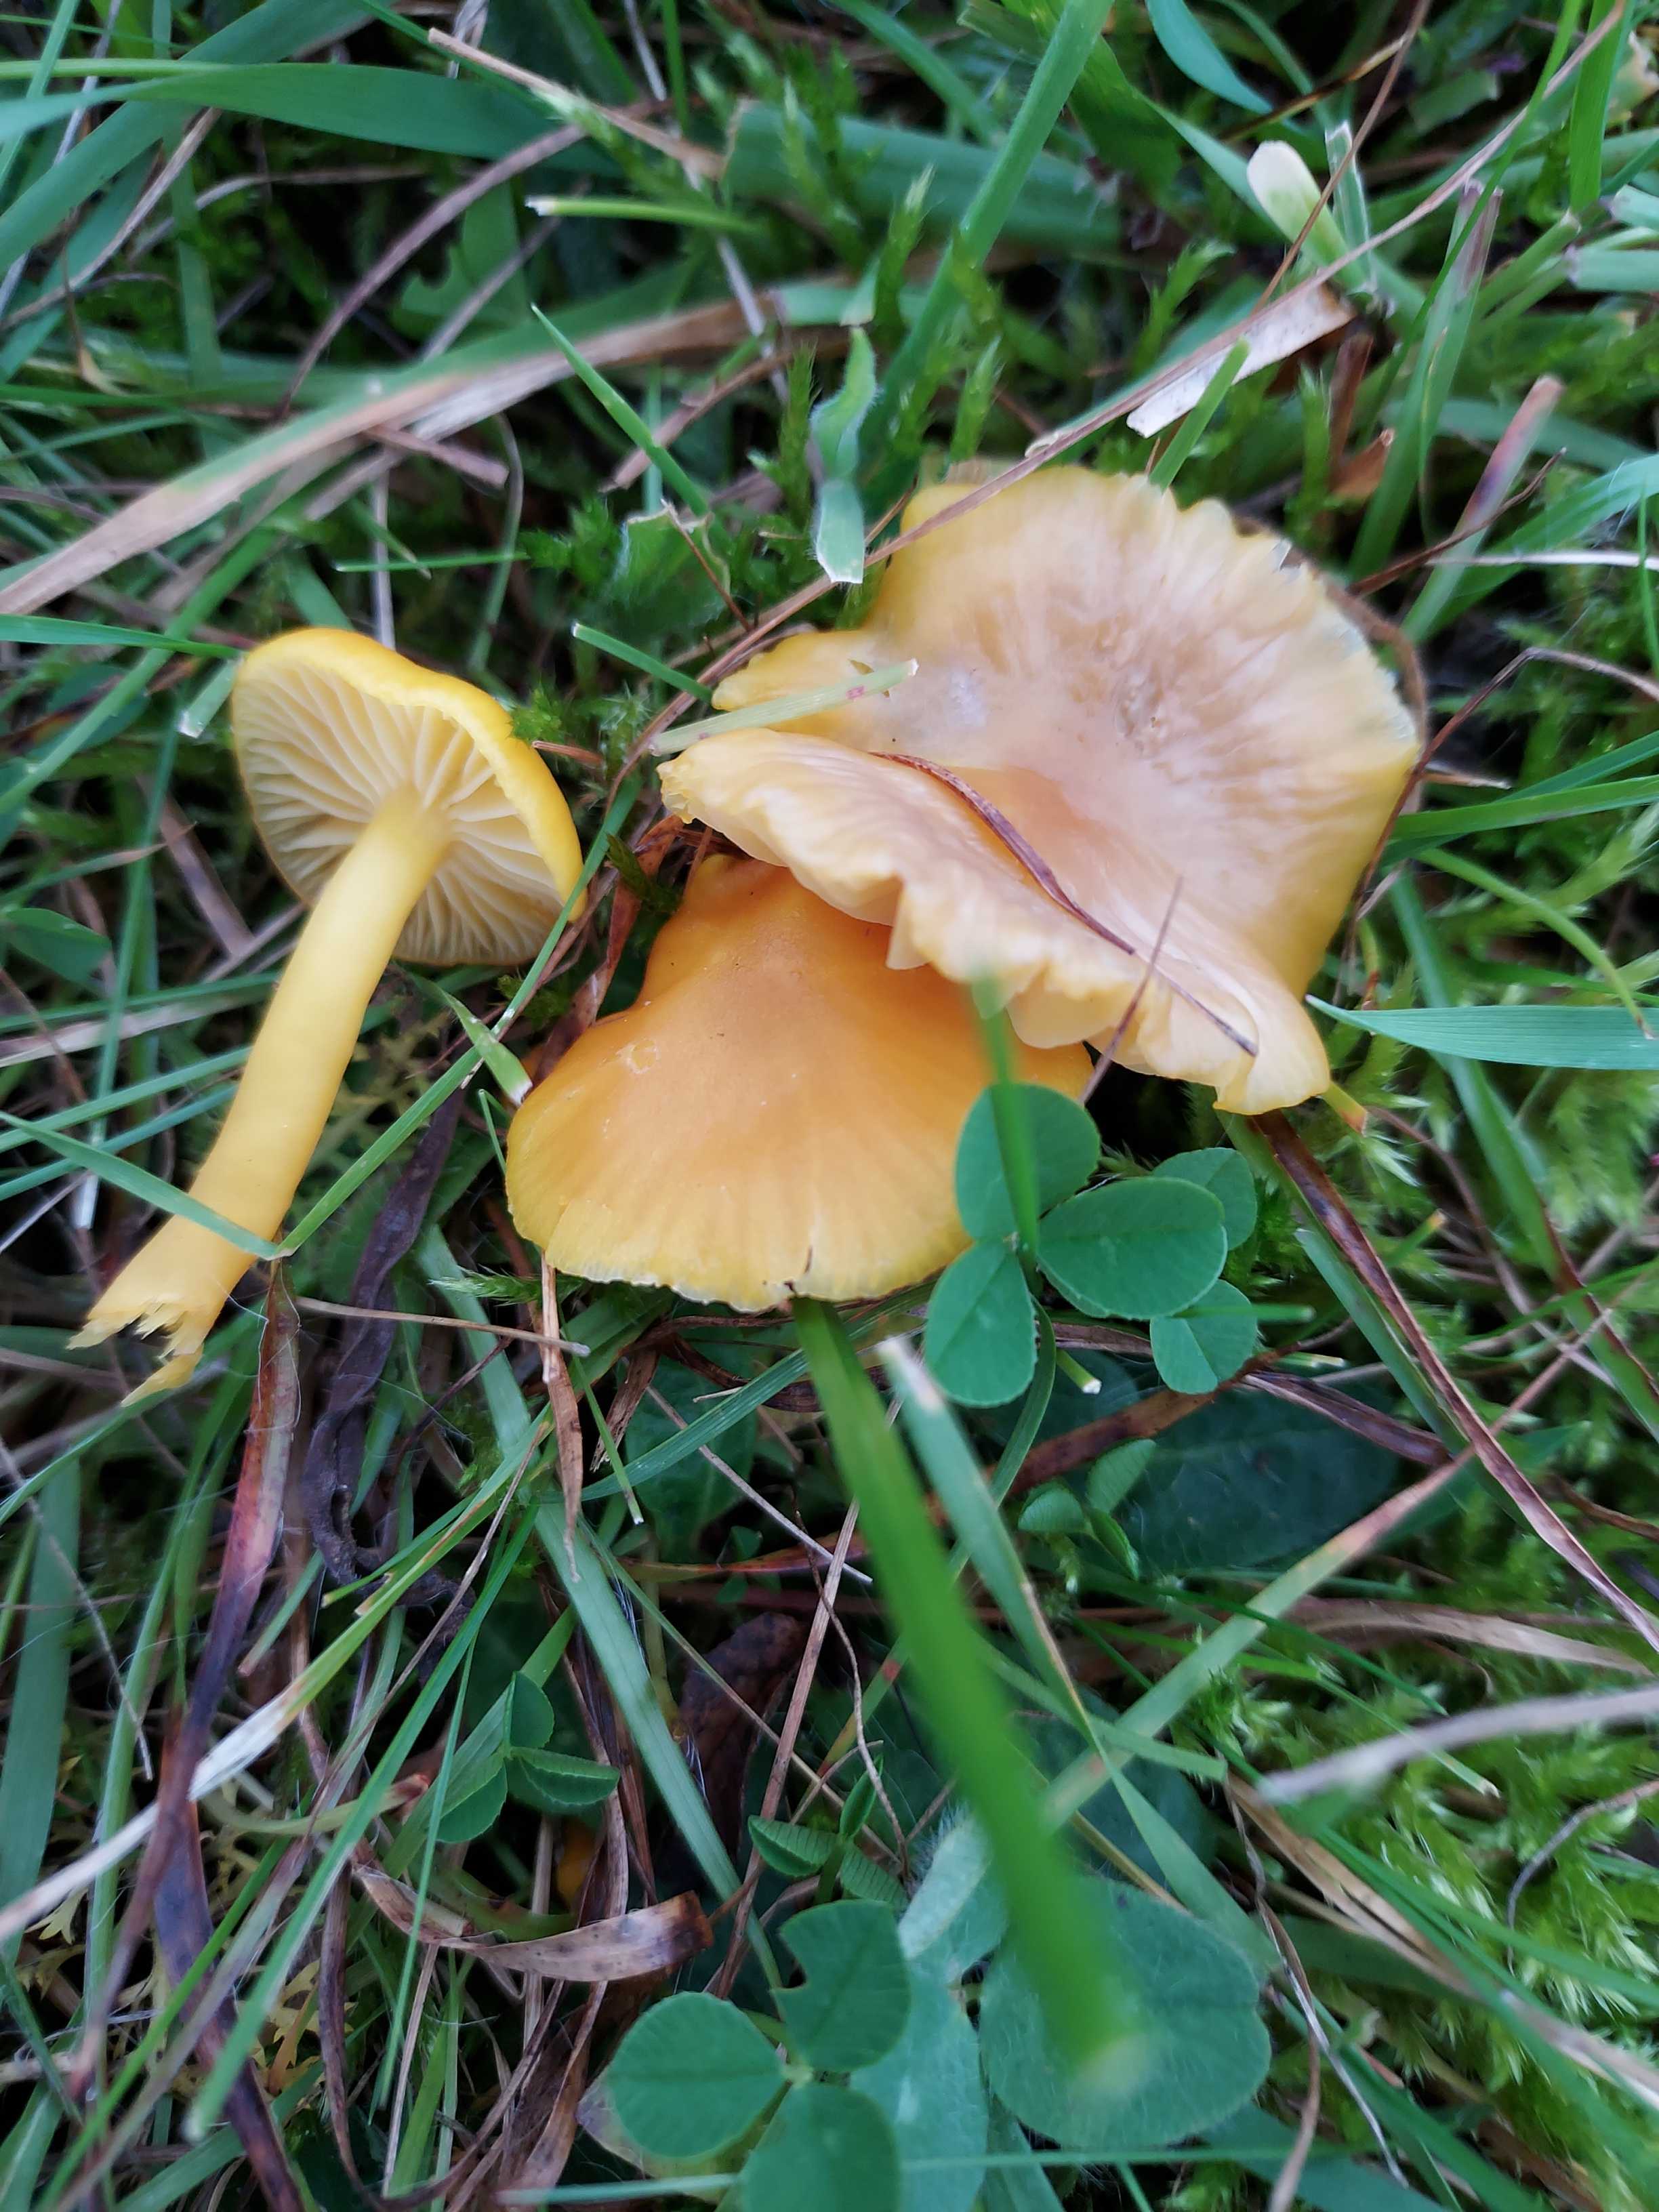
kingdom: Fungi
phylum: Basidiomycota
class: Agaricomycetes
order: Agaricales
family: Hygrophoraceae
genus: Hygrocybe
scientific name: Hygrocybe ceracea
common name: voksgul vokshat
